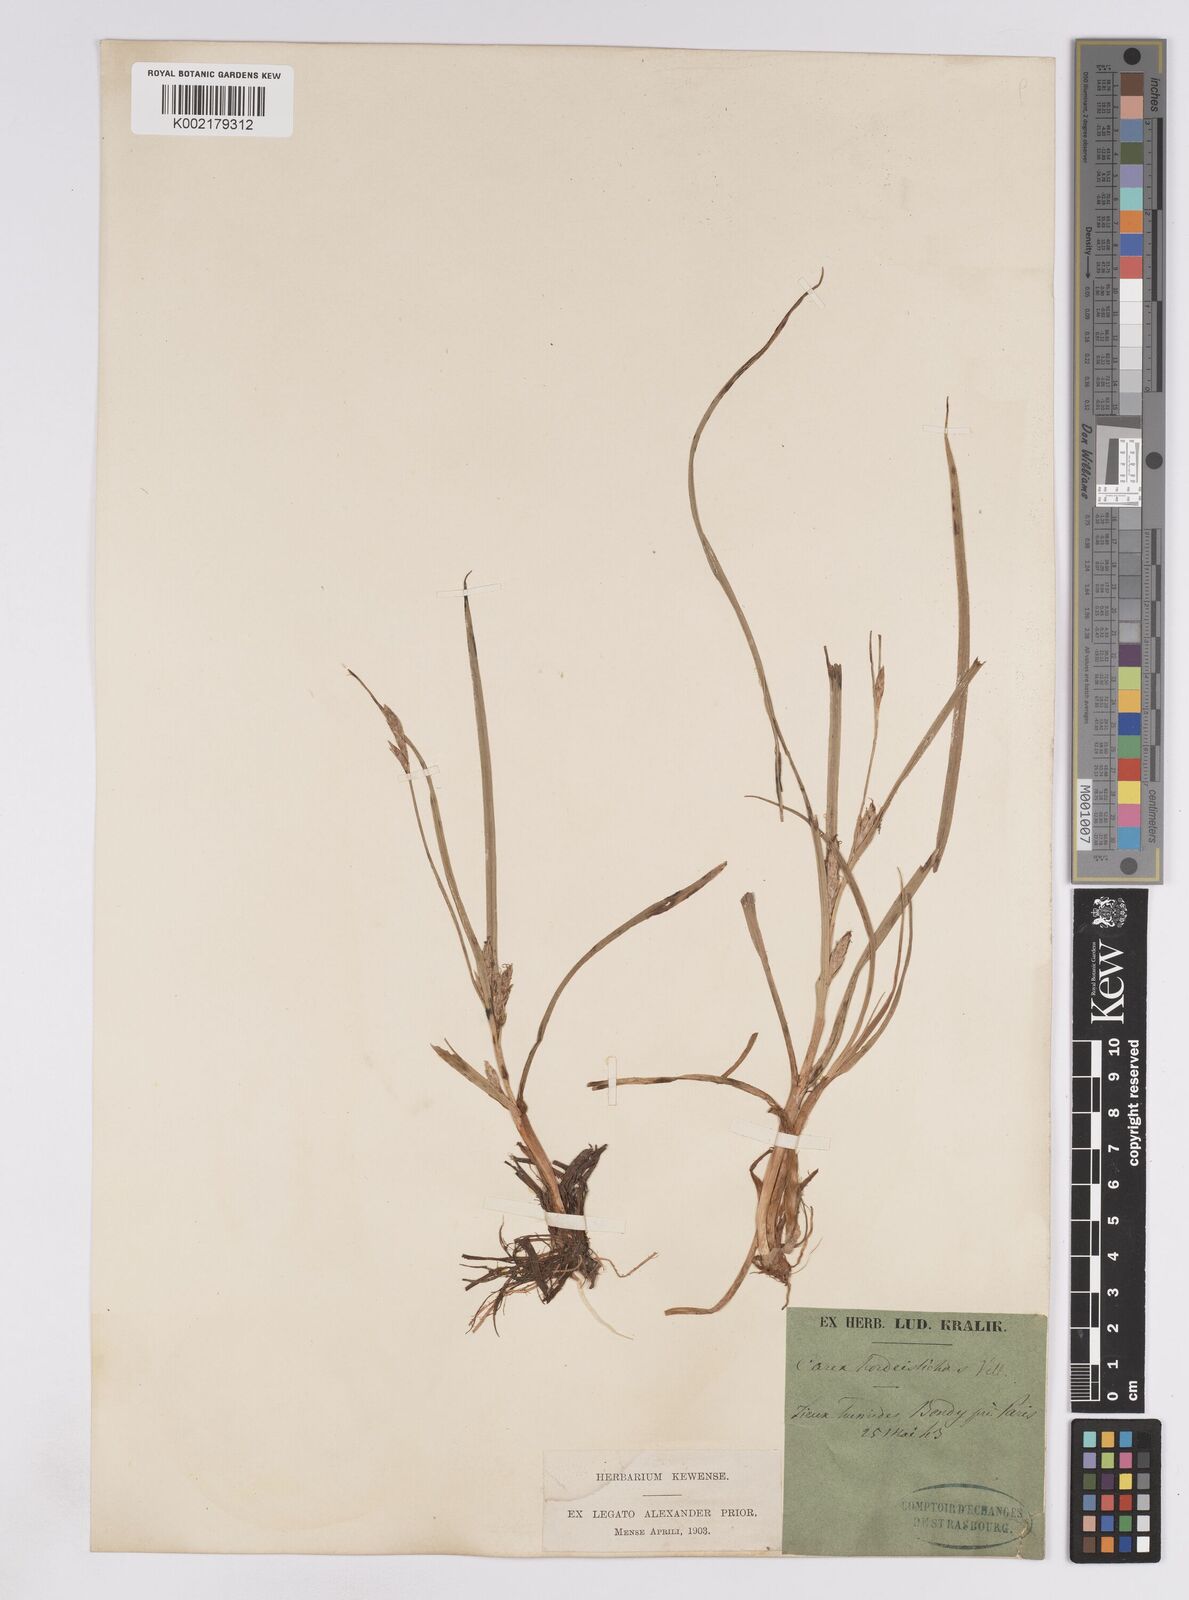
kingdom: Plantae
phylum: Tracheophyta
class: Liliopsida
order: Poales
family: Cyperaceae
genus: Carex
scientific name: Carex hordeistichos
